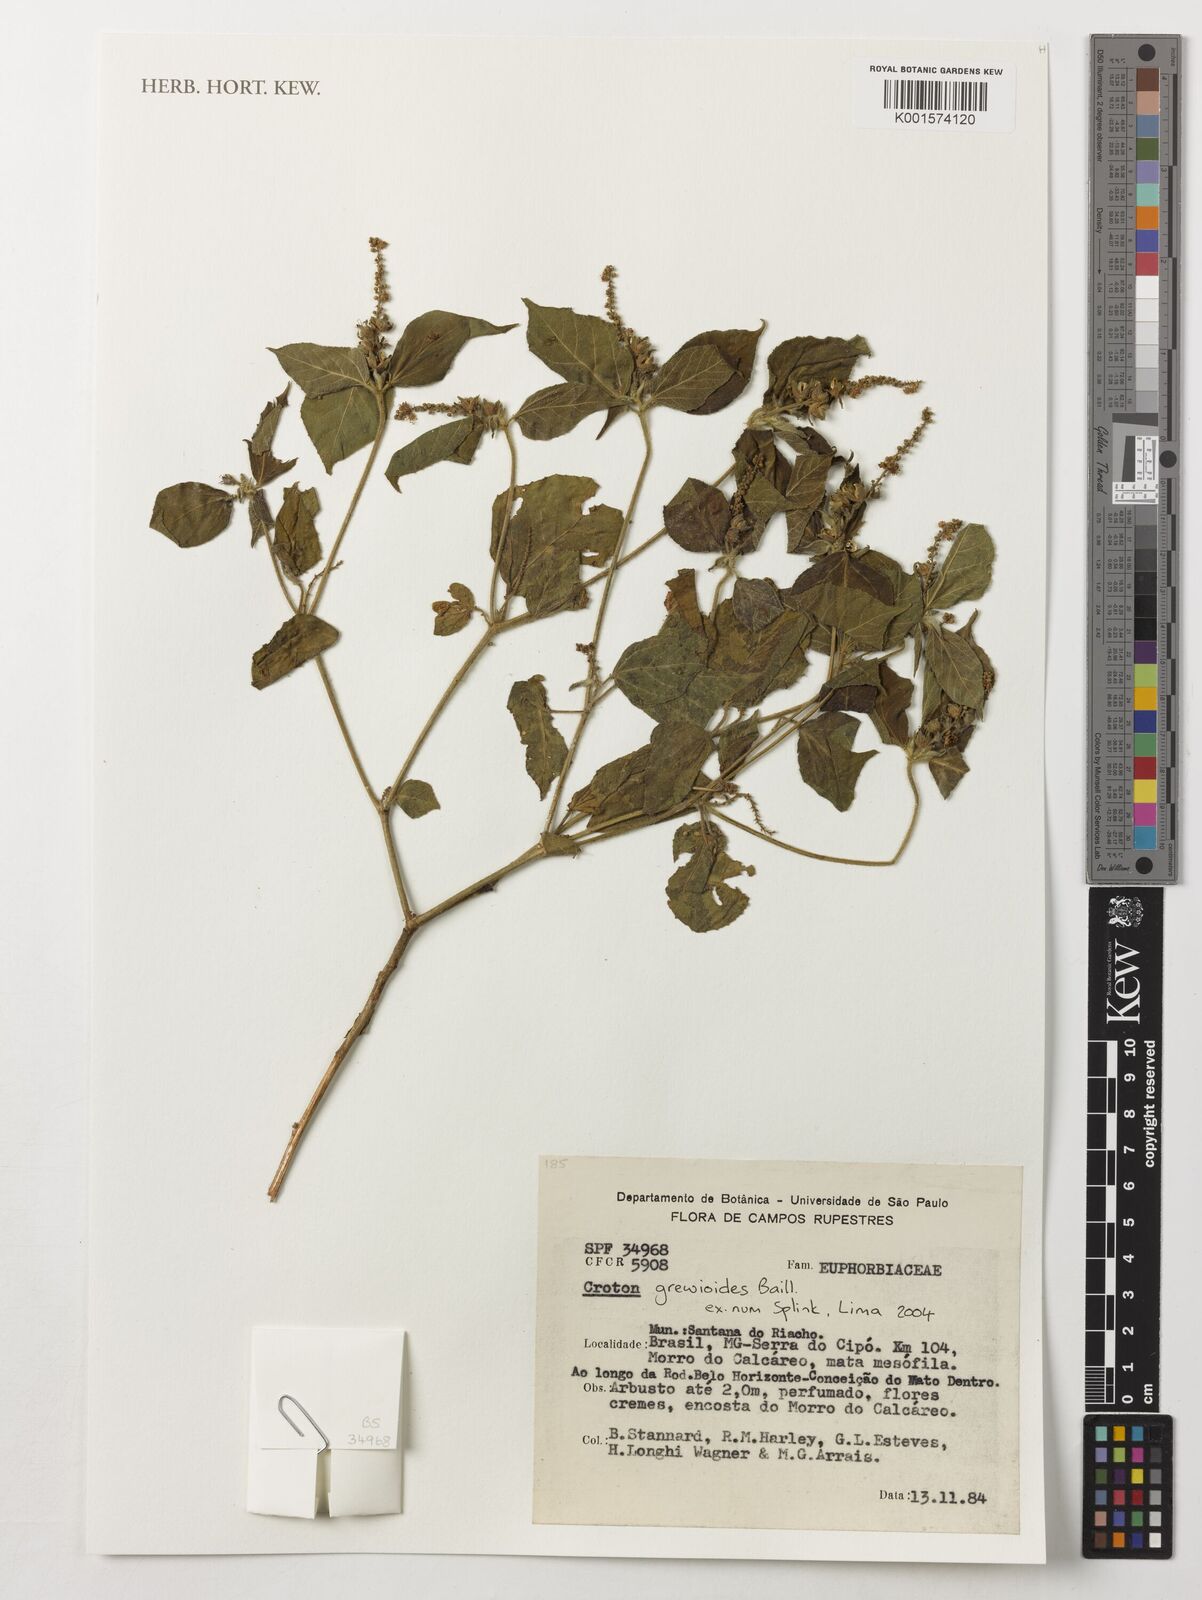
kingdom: Plantae
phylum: Tracheophyta
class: Magnoliopsida
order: Malpighiales
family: Euphorbiaceae
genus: Croton
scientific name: Croton grewioides
